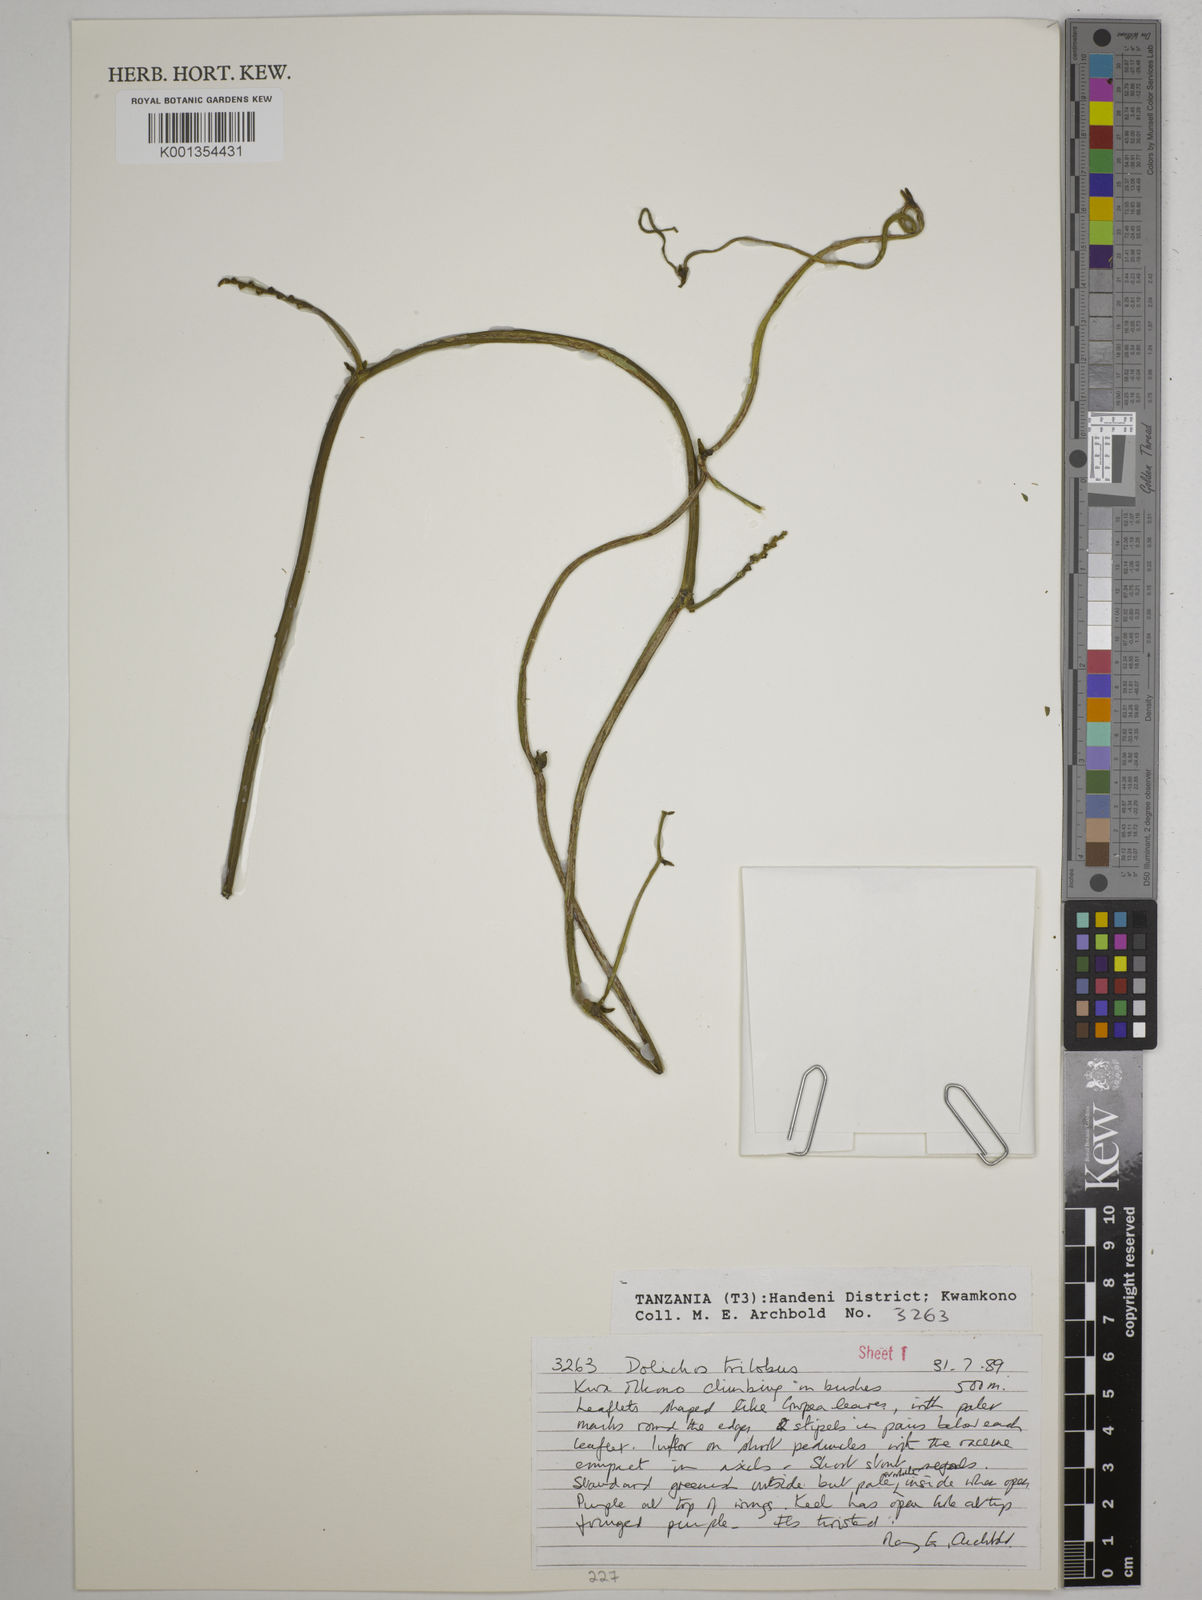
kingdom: Plantae
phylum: Tracheophyta
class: Magnoliopsida
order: Fabales
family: Fabaceae
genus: Dolichos
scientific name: Dolichos
